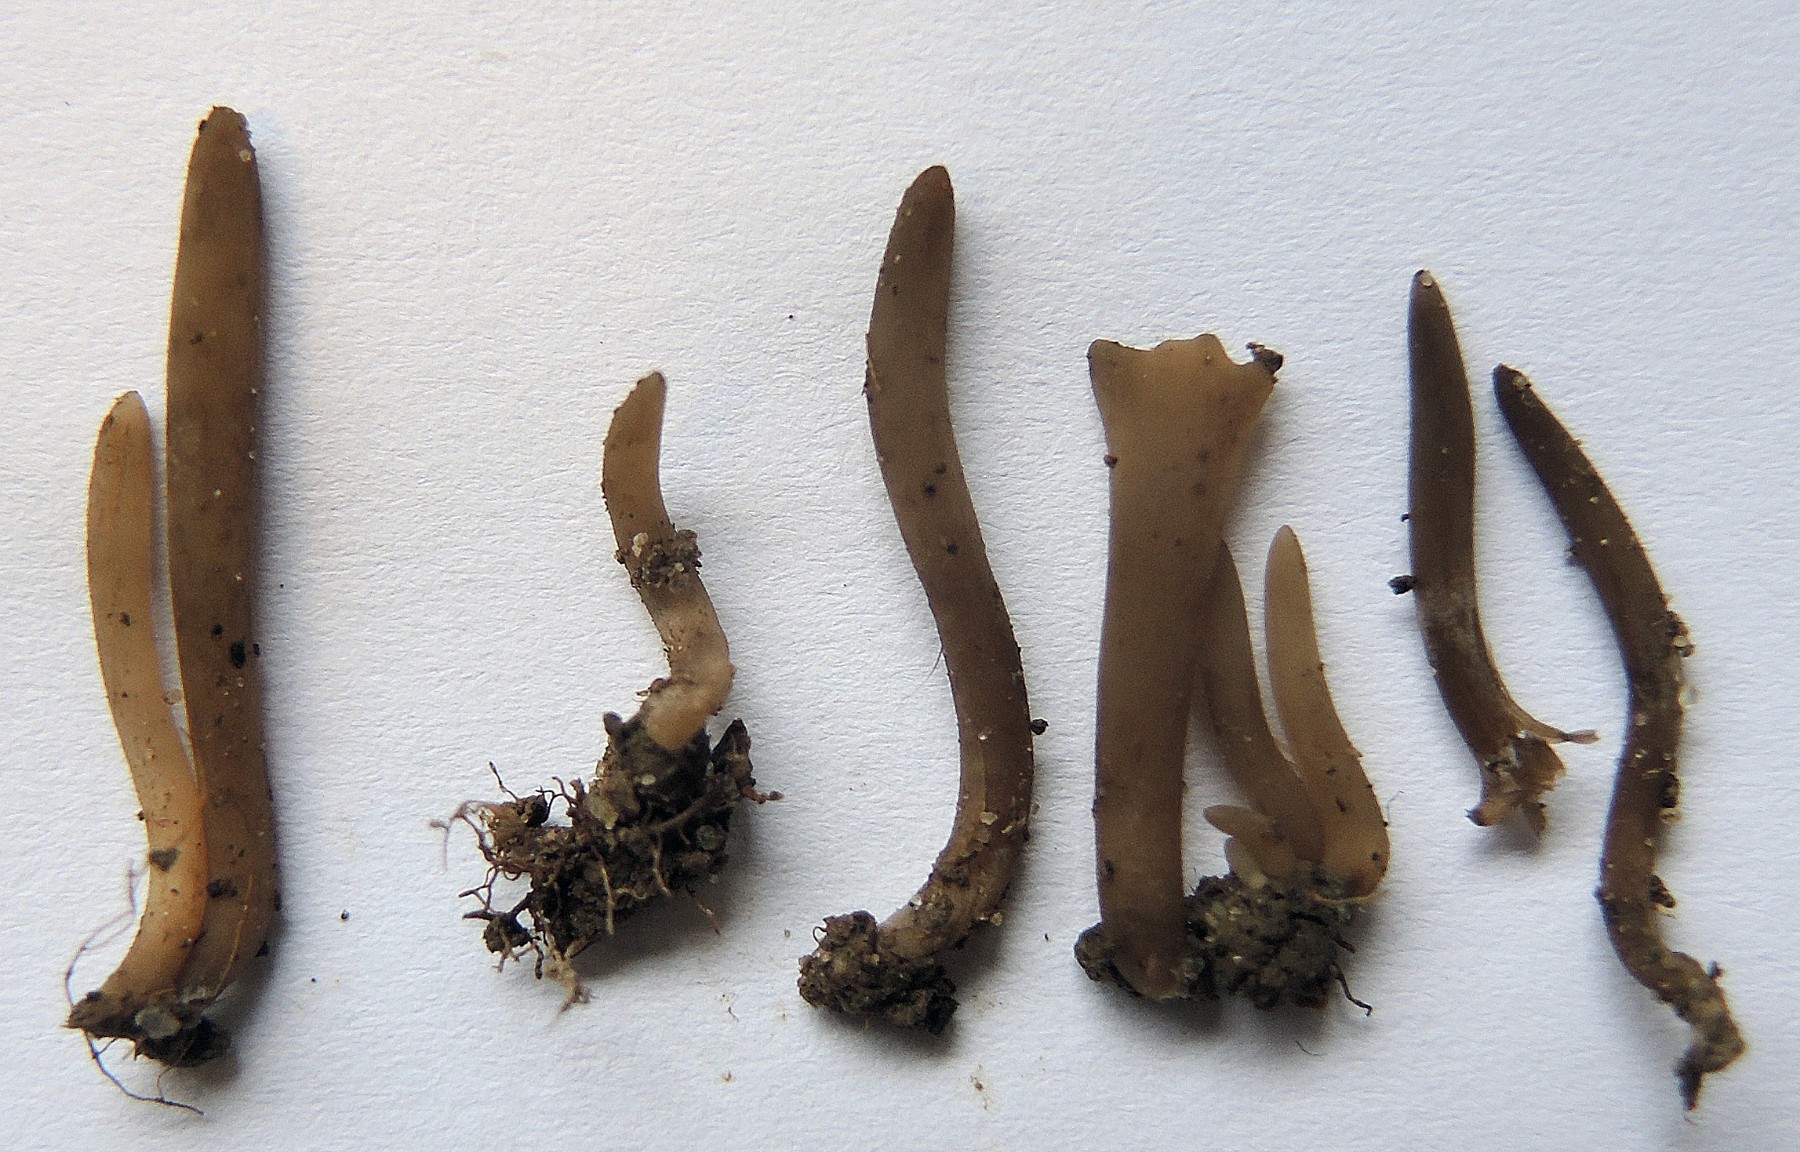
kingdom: Fungi
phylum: Basidiomycota
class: Agaricomycetes
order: Agaricales
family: Clavariaceae
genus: Clavaria
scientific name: Clavaria atroumbrina
